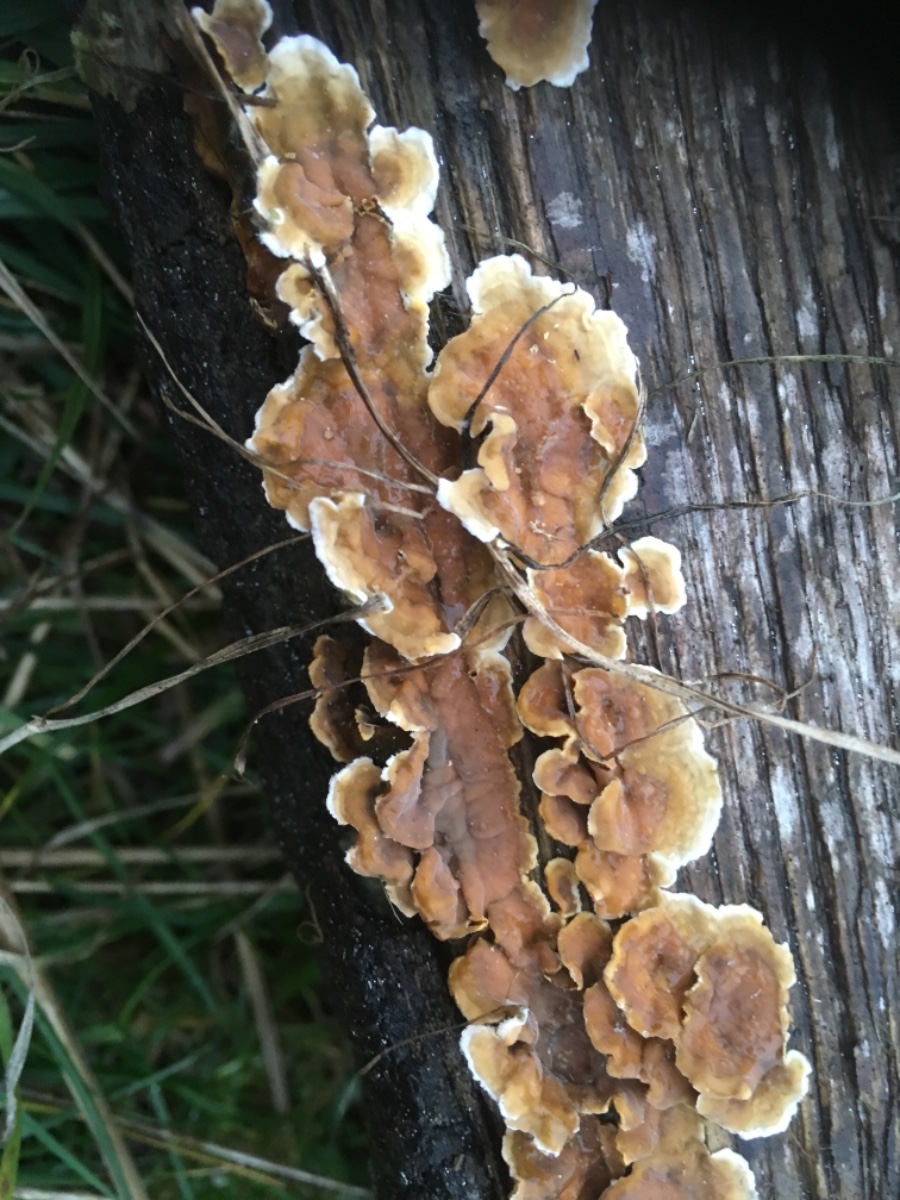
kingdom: Fungi
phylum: Basidiomycota
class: Agaricomycetes
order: Russulales
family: Stereaceae
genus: Stereum
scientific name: Stereum hirsutum
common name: håret lædersvamp
